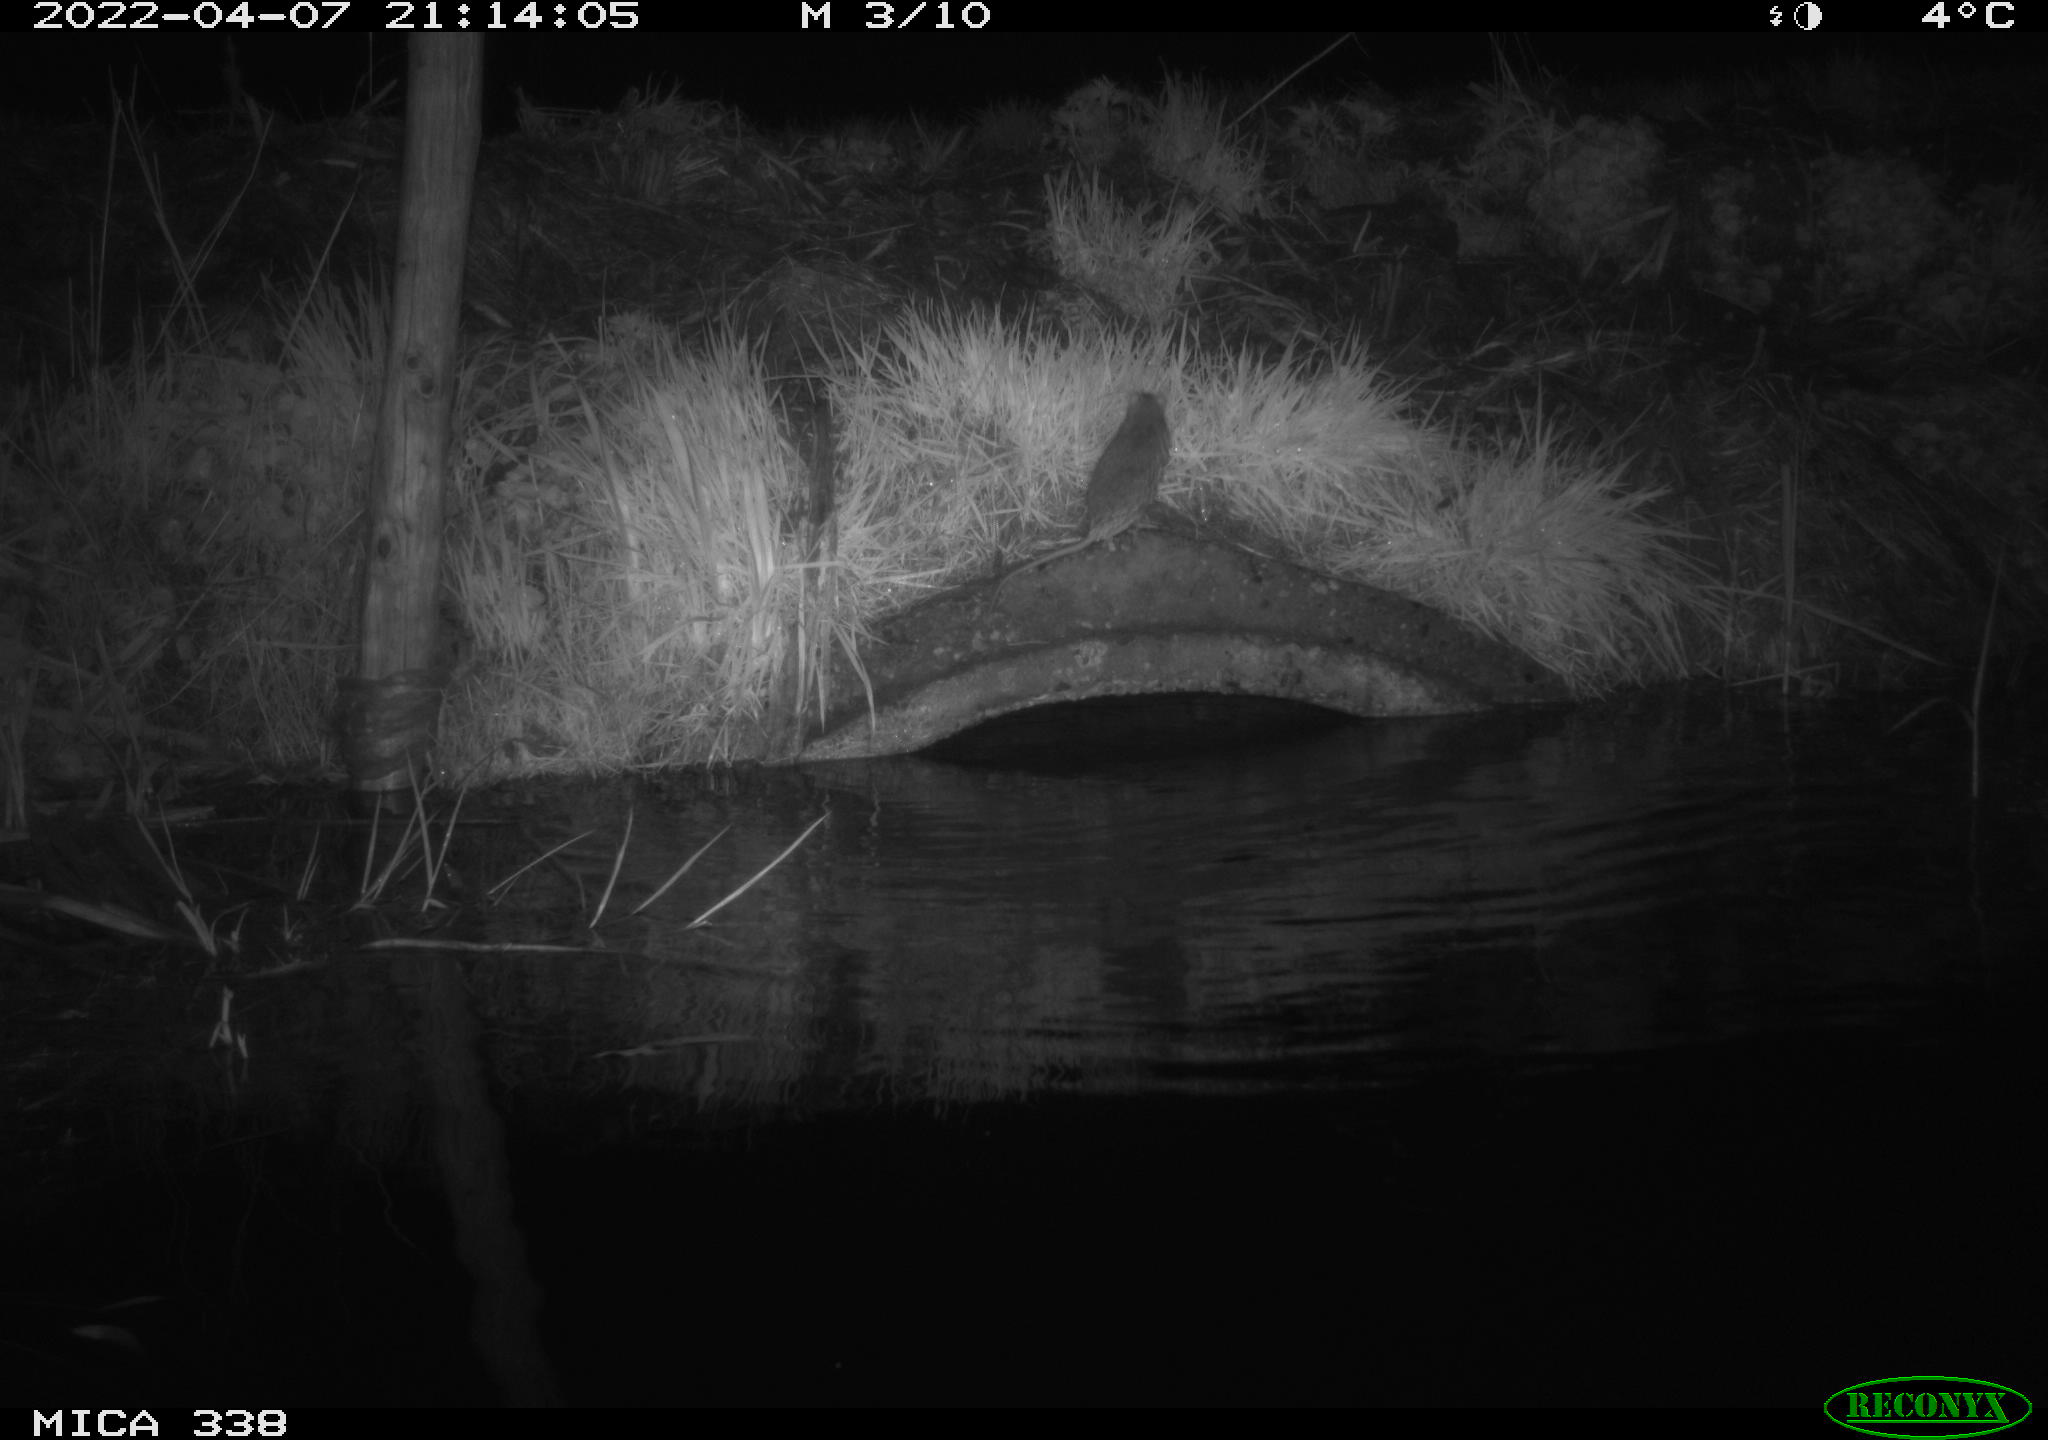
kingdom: Animalia
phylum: Chordata
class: Mammalia
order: Rodentia
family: Muridae
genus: Rattus
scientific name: Rattus norvegicus
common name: Brown rat
